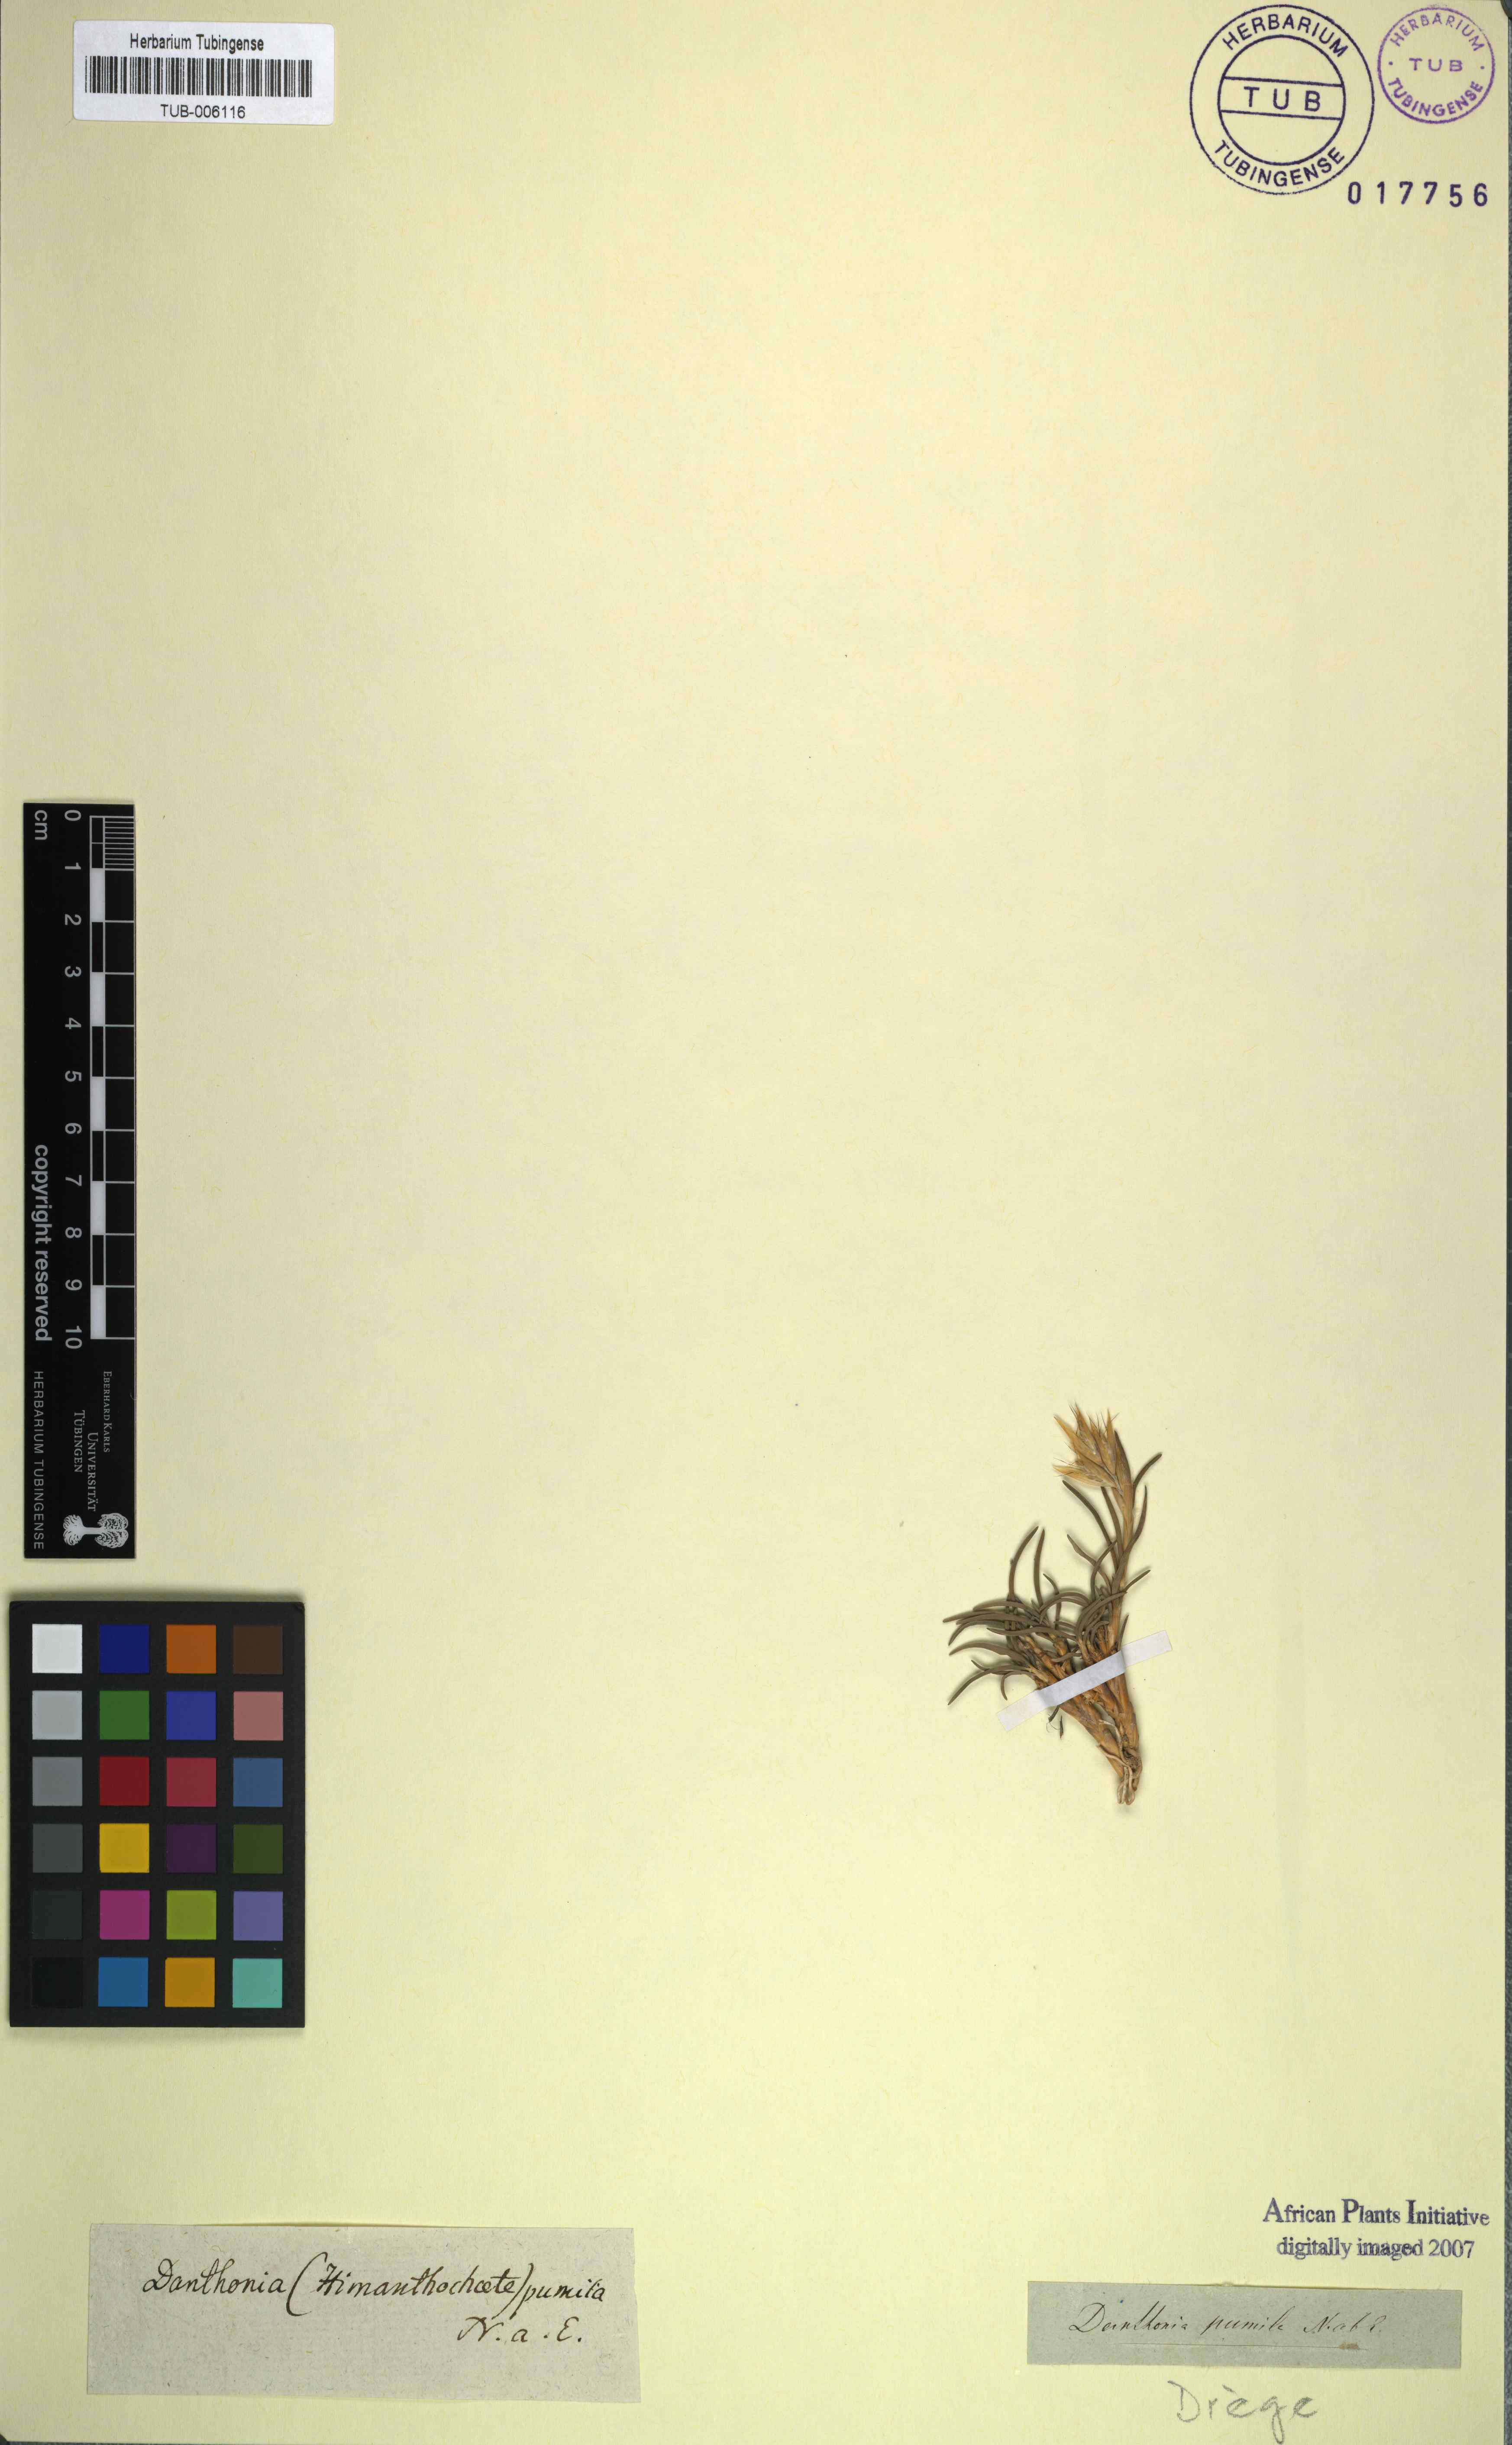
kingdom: Plantae
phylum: Tracheophyta
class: Liliopsida
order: Poales
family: Poaceae
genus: Dregeochloa
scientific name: Dregeochloa pumila
